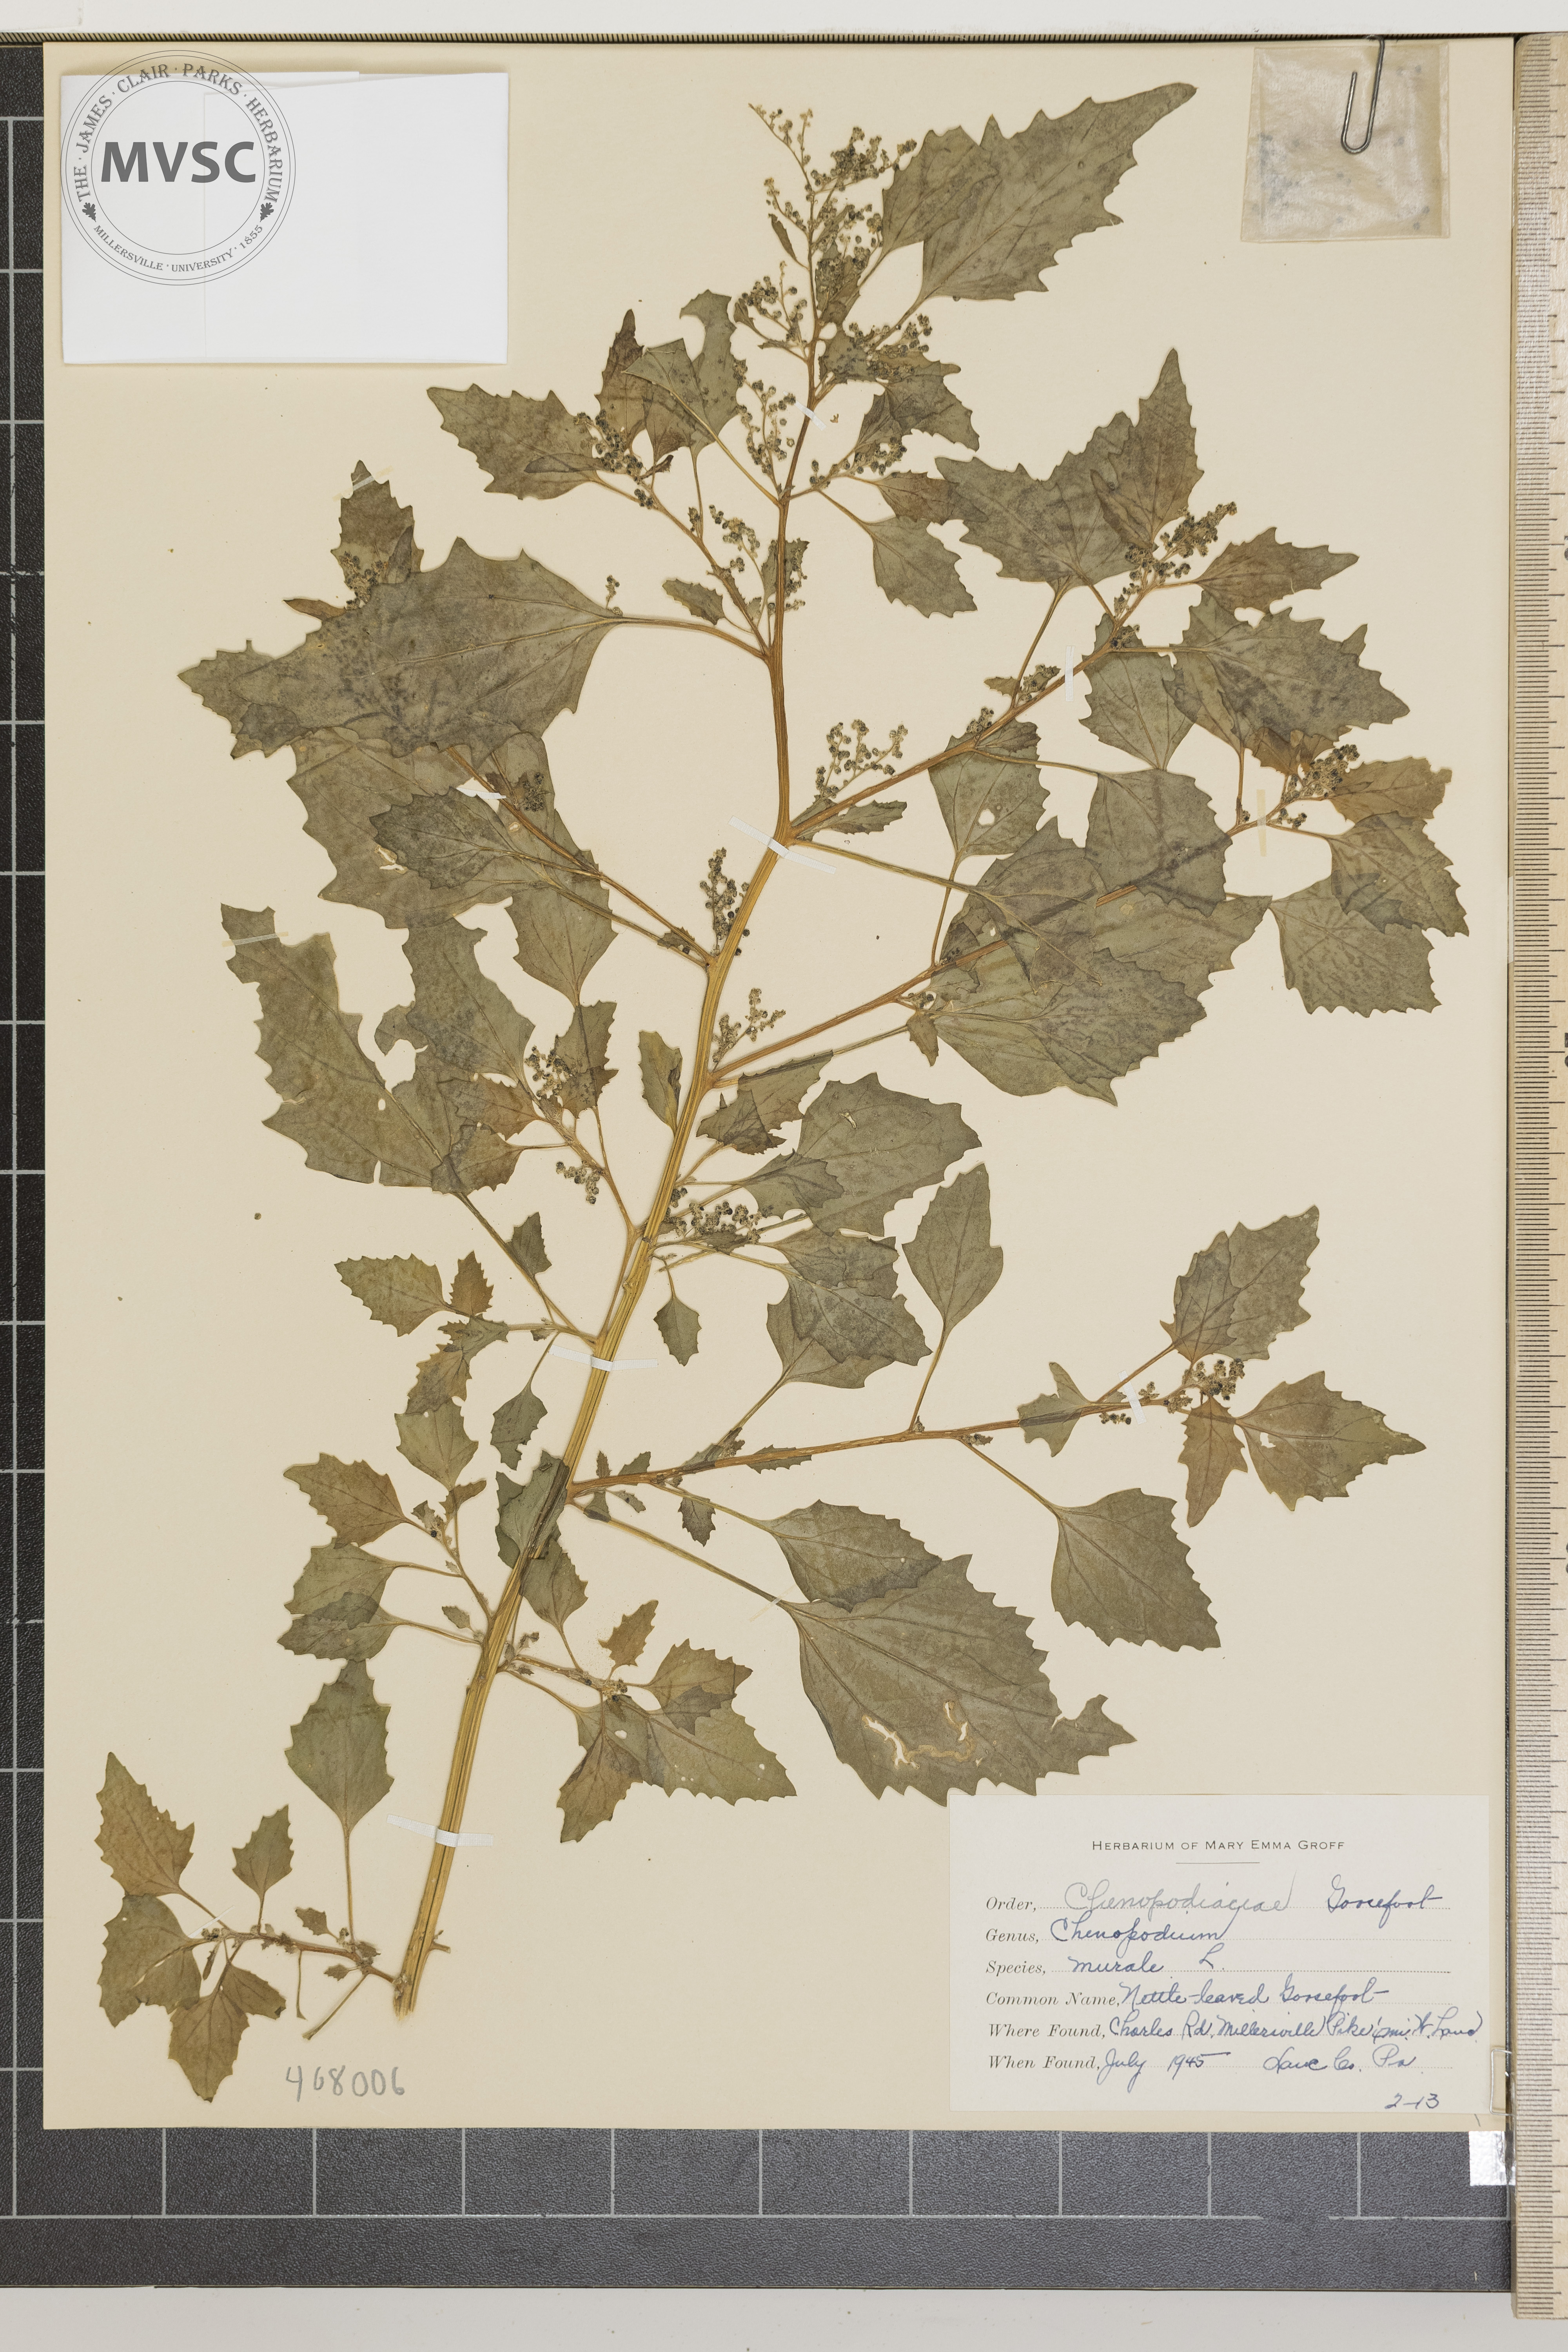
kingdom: Plantae
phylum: Tracheophyta
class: Magnoliopsida
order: Caryophyllales
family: Amaranthaceae
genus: Chenopodiastrum
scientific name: Chenopodiastrum murale
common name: Nettle-leaved Goosefoot
